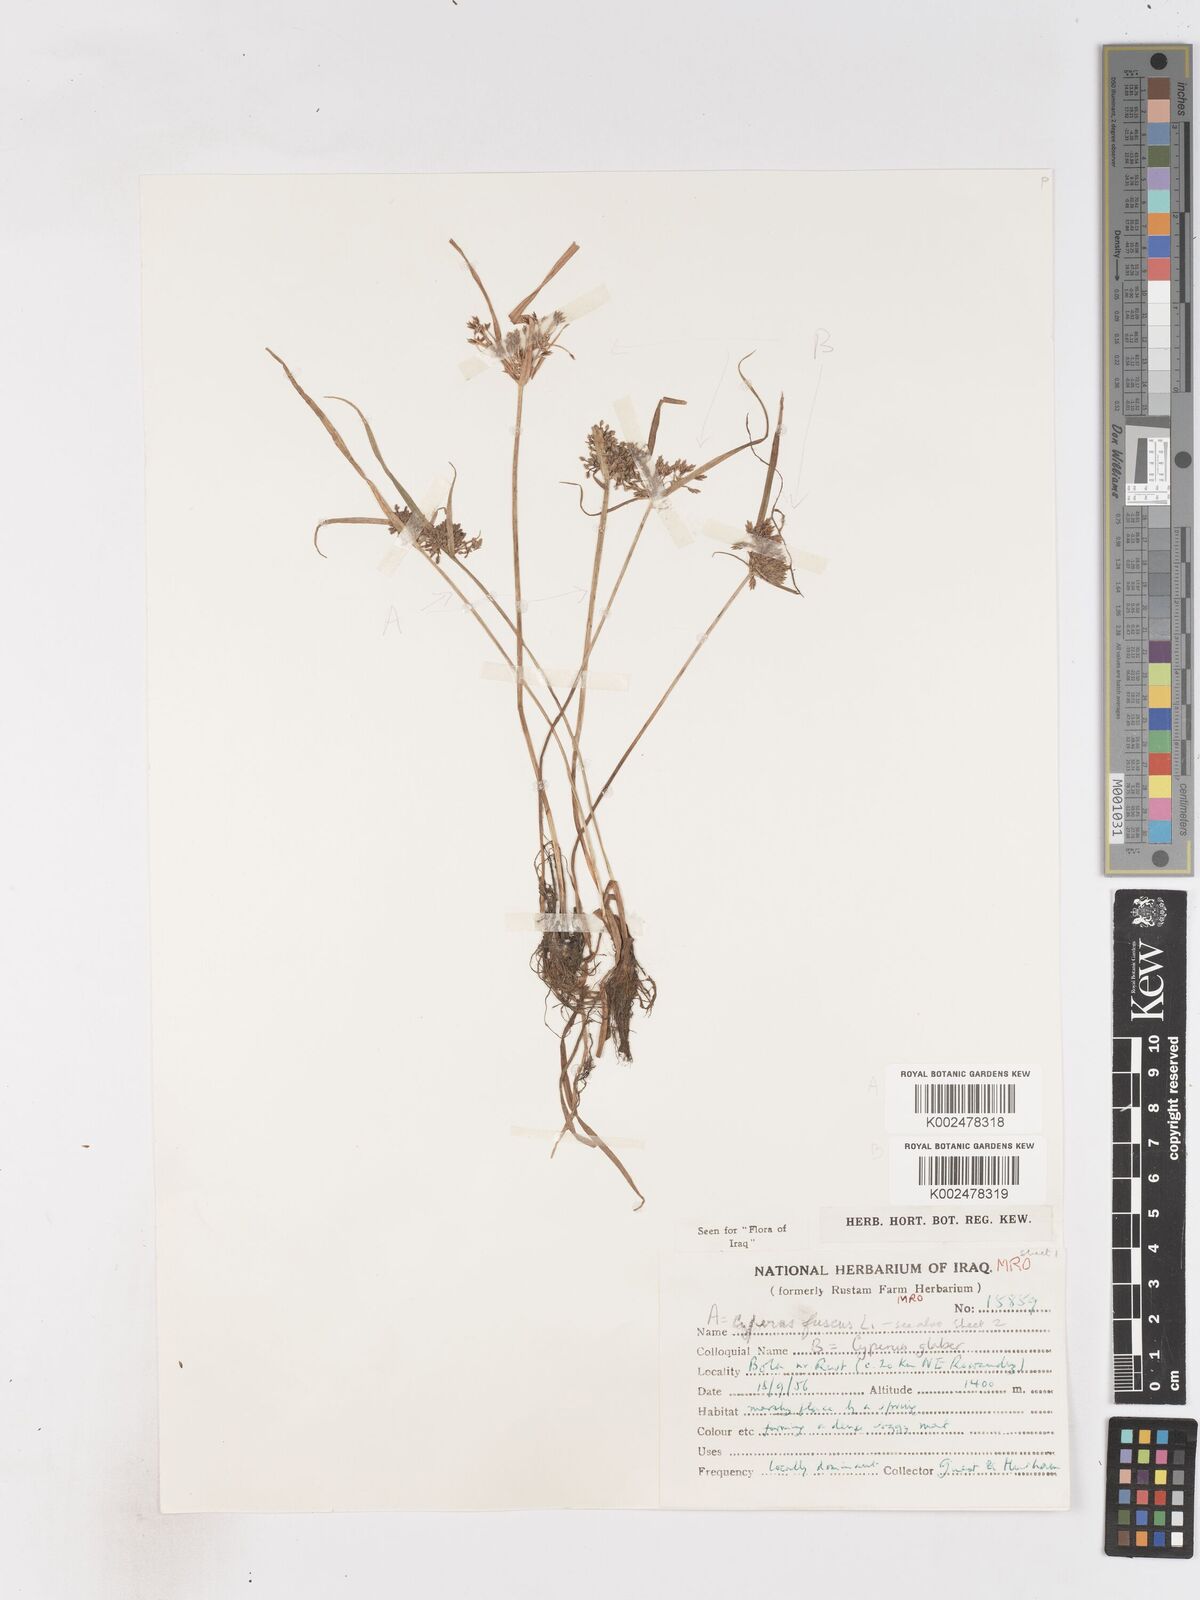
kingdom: Plantae
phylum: Tracheophyta
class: Liliopsida
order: Poales
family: Cyperaceae
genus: Cyperus
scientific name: Cyperus glaber
